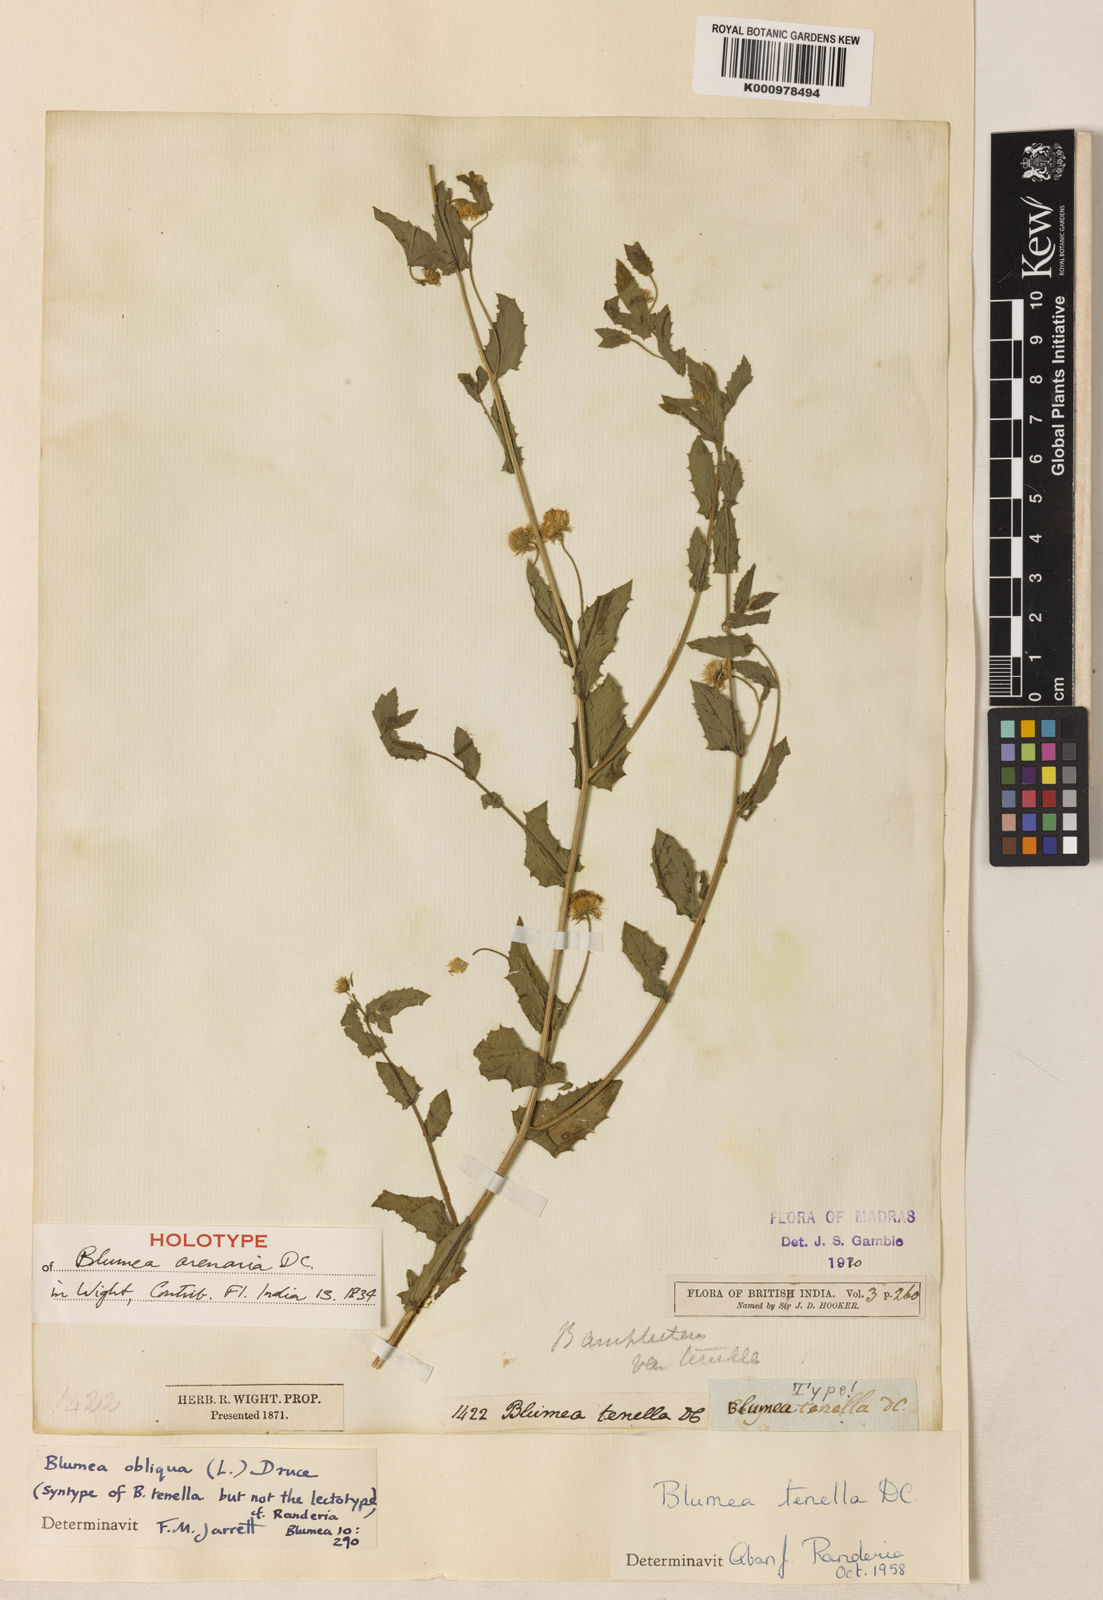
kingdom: Plantae
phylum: Tracheophyta
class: Magnoliopsida
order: Asterales
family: Asteraceae
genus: Blumea
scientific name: Blumea obliqua
